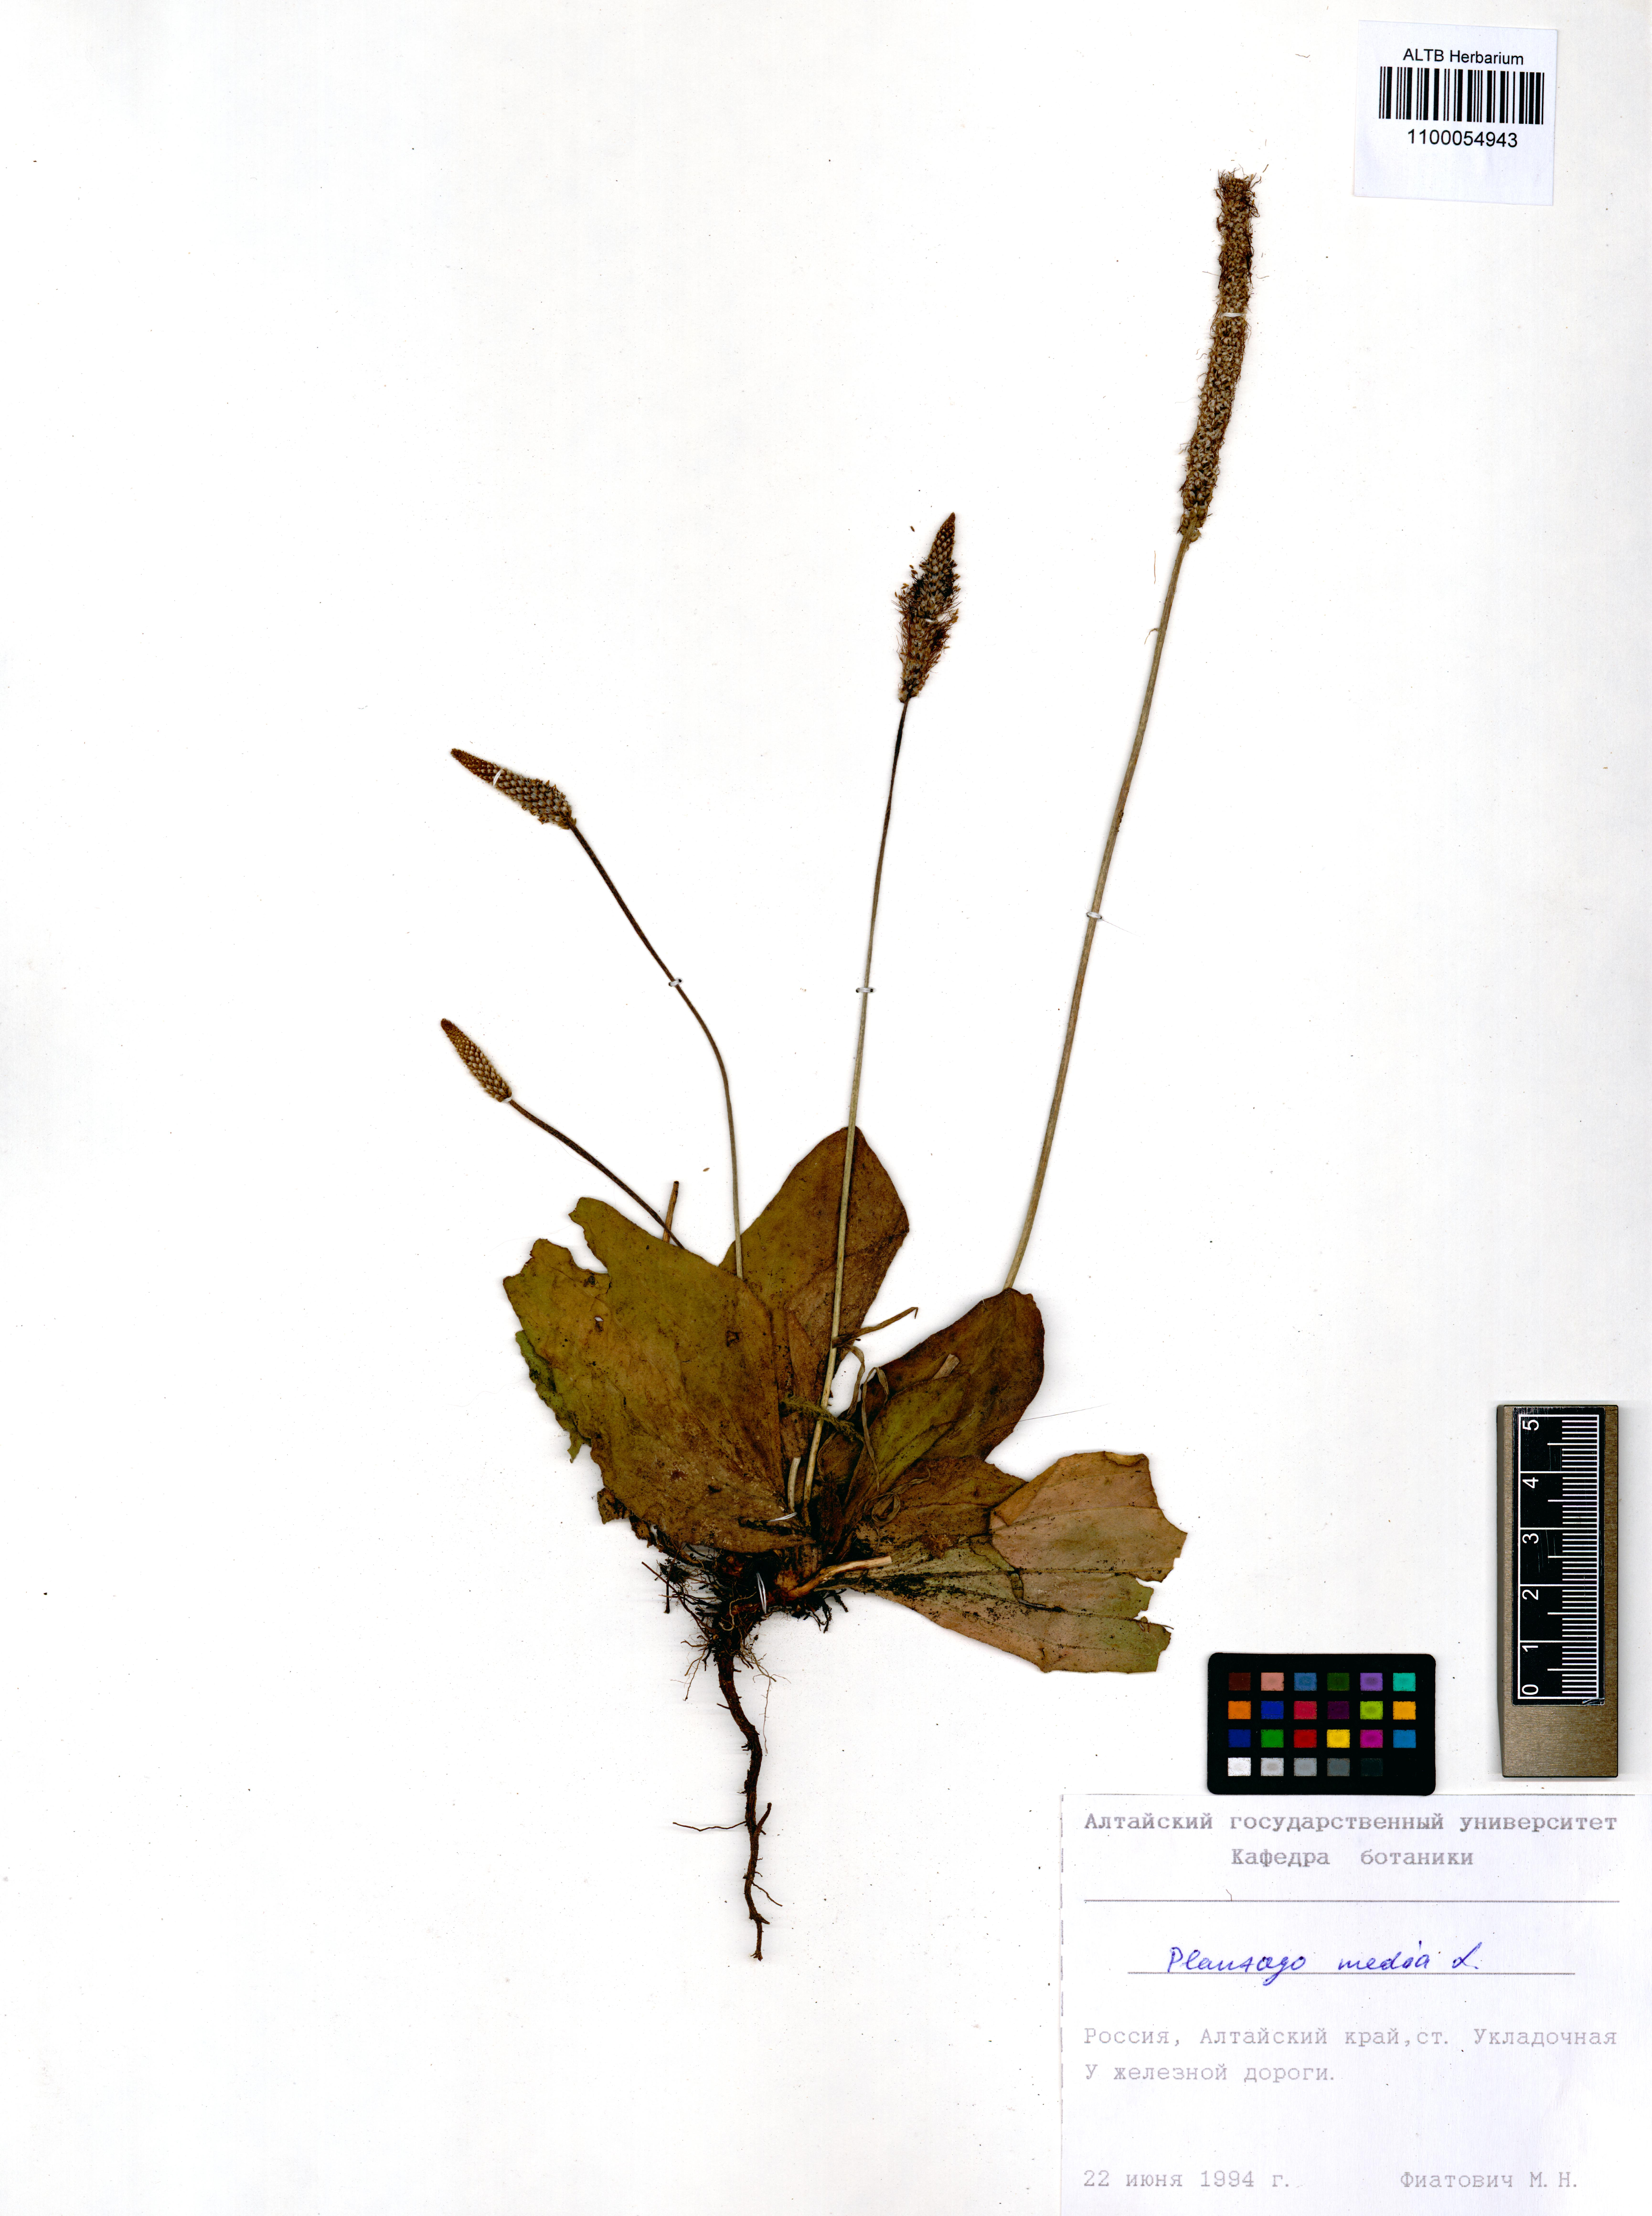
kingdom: Plantae
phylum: Tracheophyta
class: Magnoliopsida
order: Lamiales
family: Plantaginaceae
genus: Plantago
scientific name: Plantago media
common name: Hoary plantain
